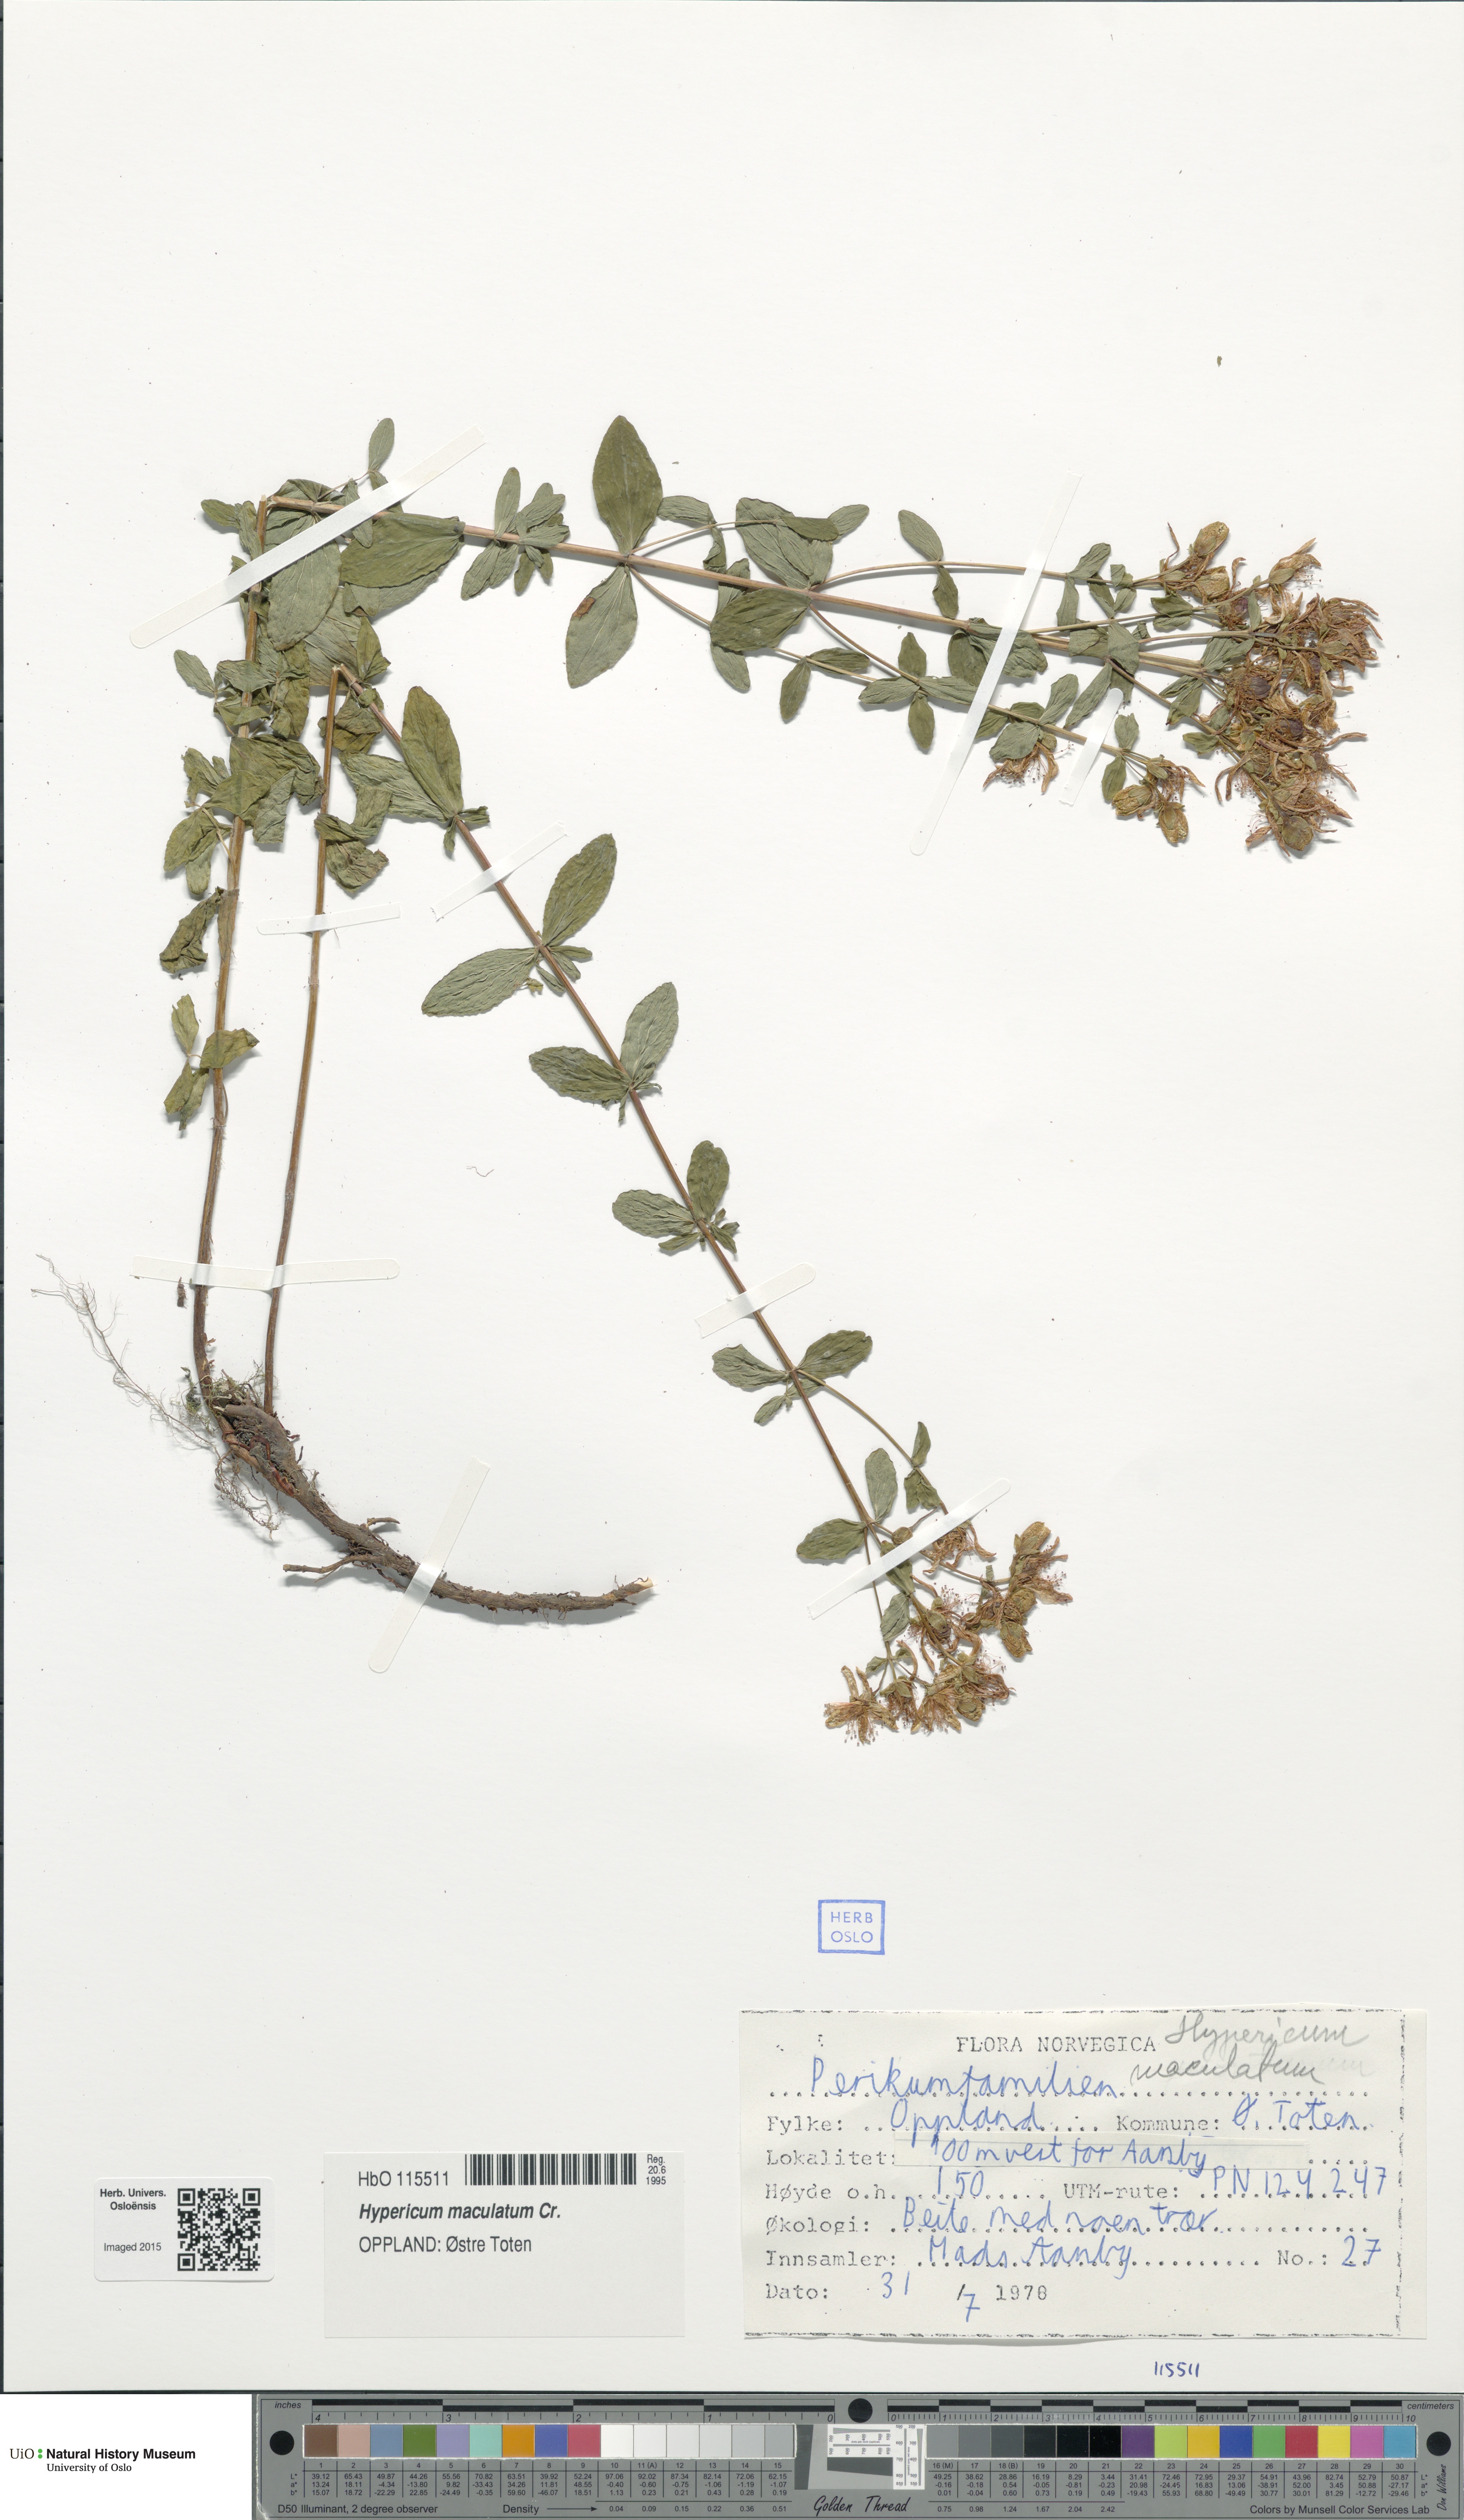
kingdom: Plantae
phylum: Tracheophyta
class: Magnoliopsida
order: Malpighiales
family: Hypericaceae
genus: Hypericum
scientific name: Hypericum maculatum
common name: Imperforate st. john's-wort
